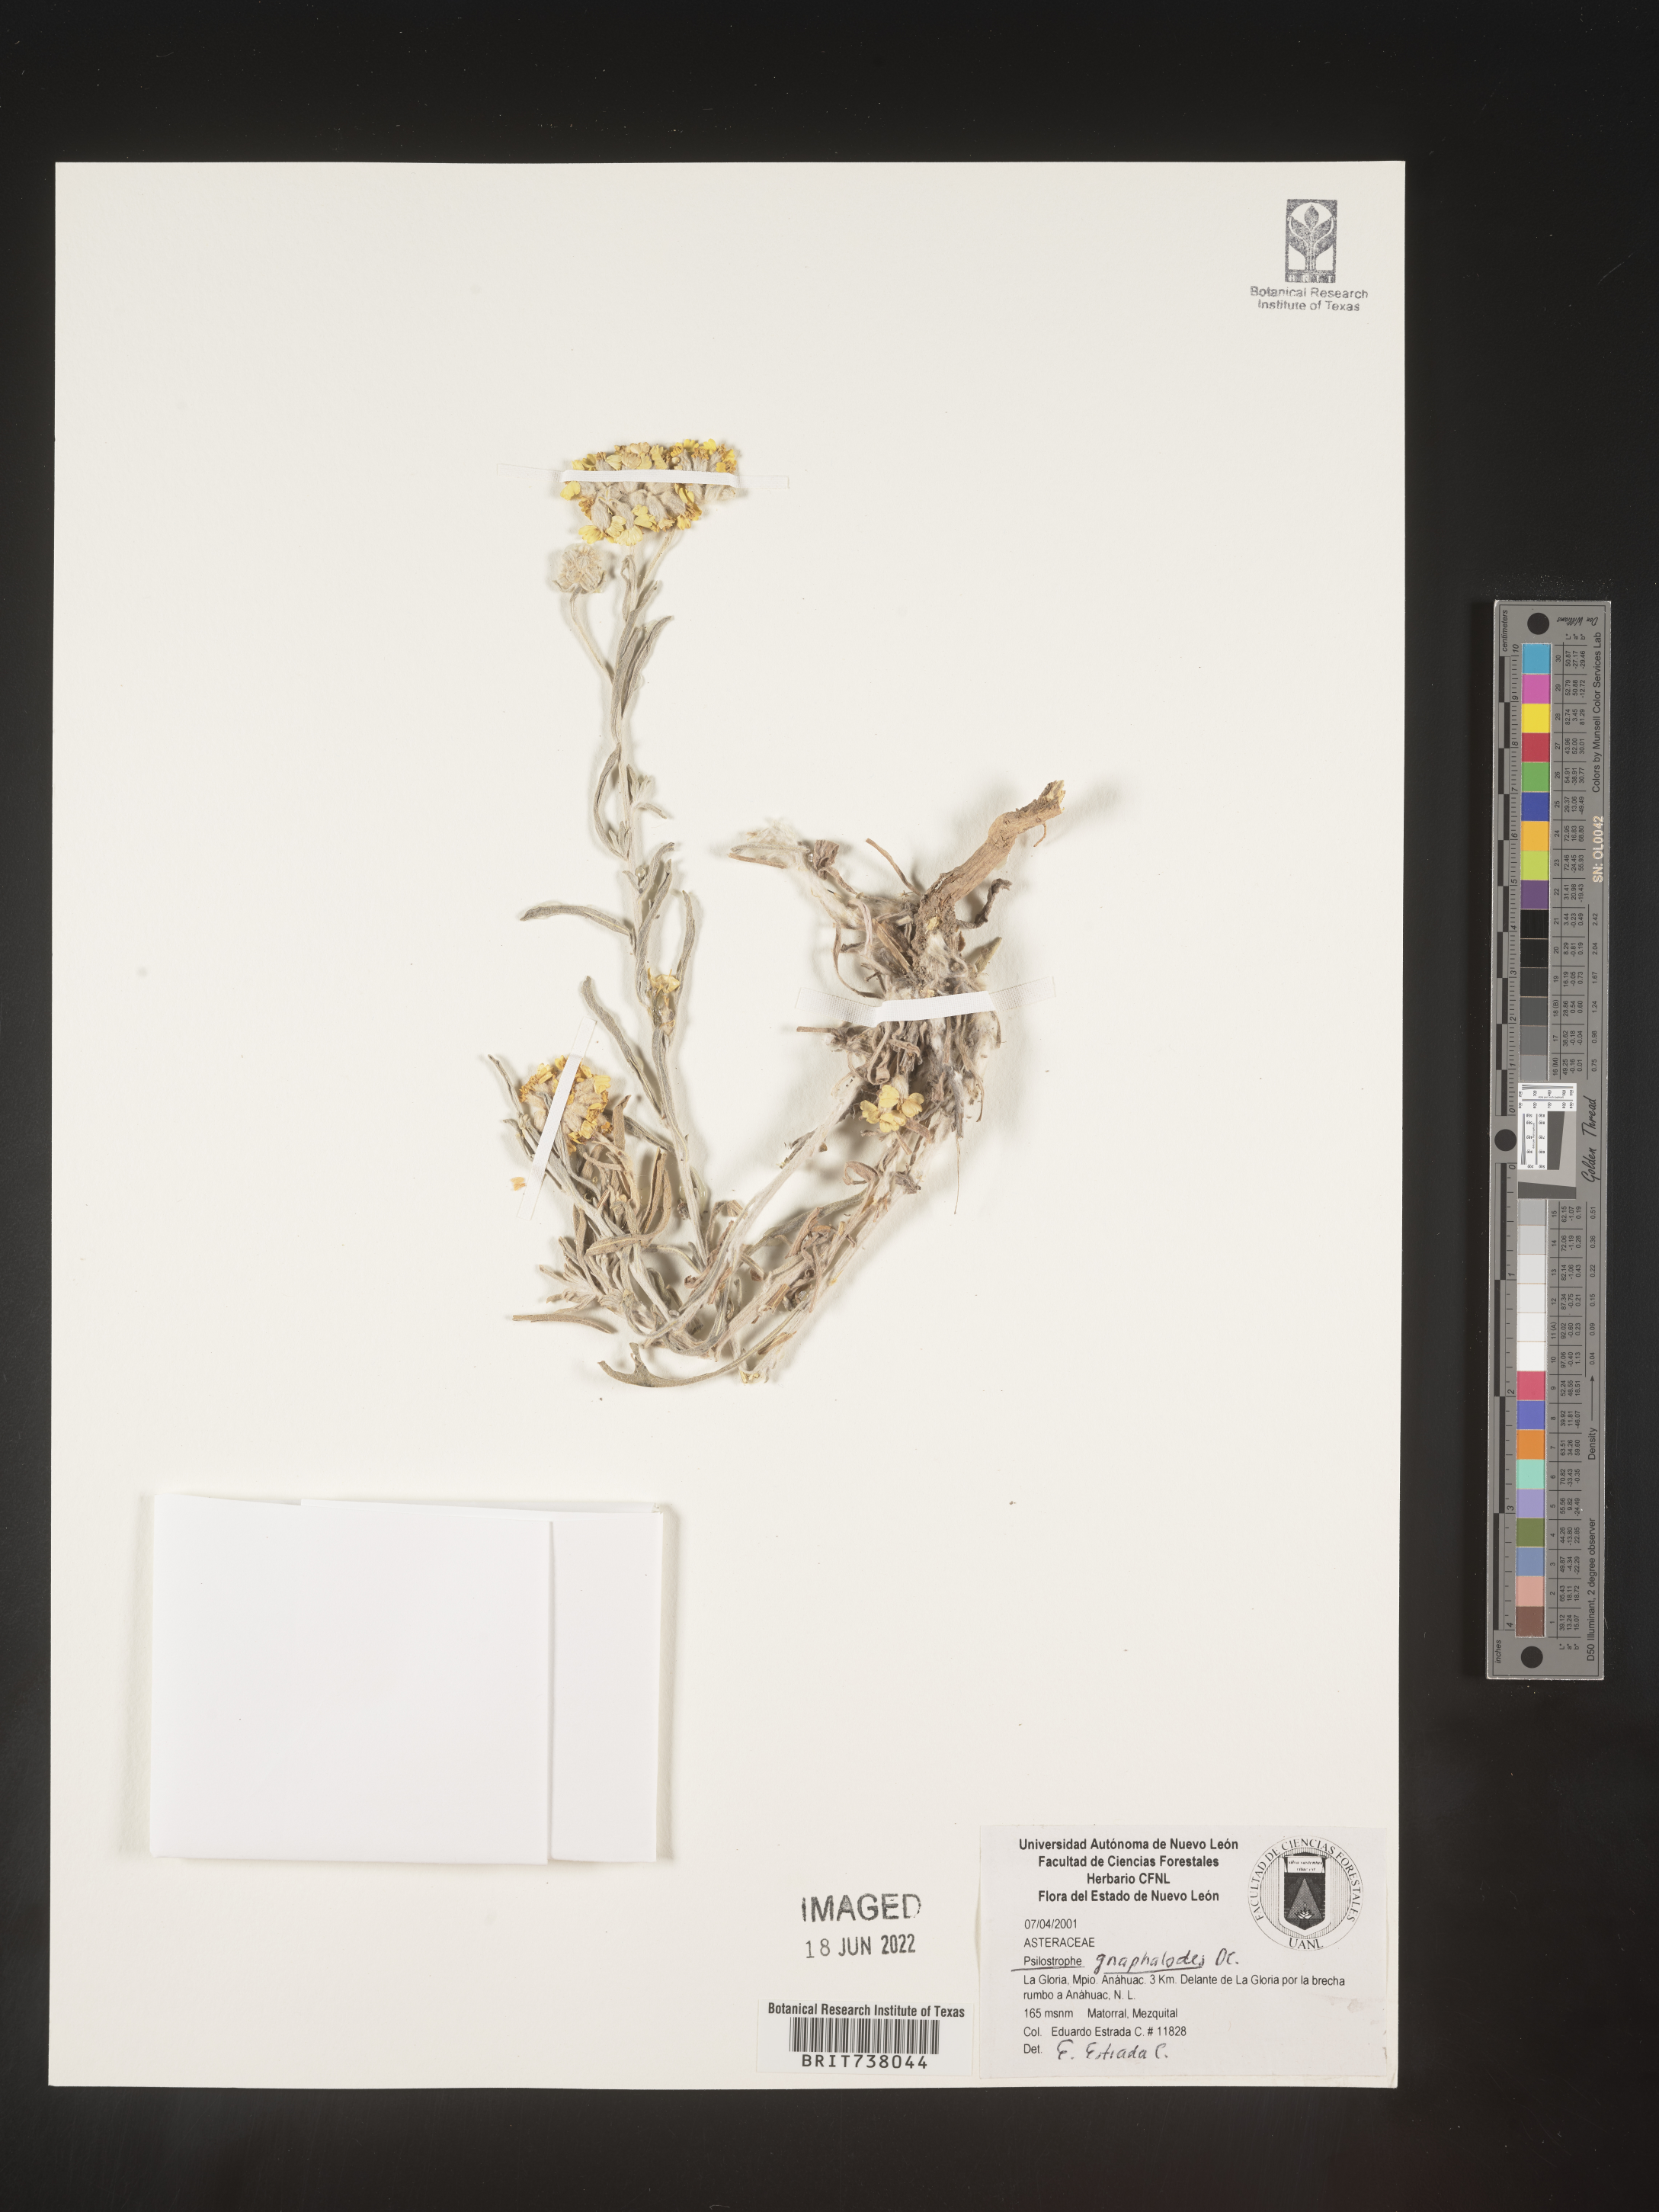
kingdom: Plantae
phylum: Tracheophyta
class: Magnoliopsida
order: Asterales
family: Asteraceae
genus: Psilostrophe
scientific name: Psilostrophe
